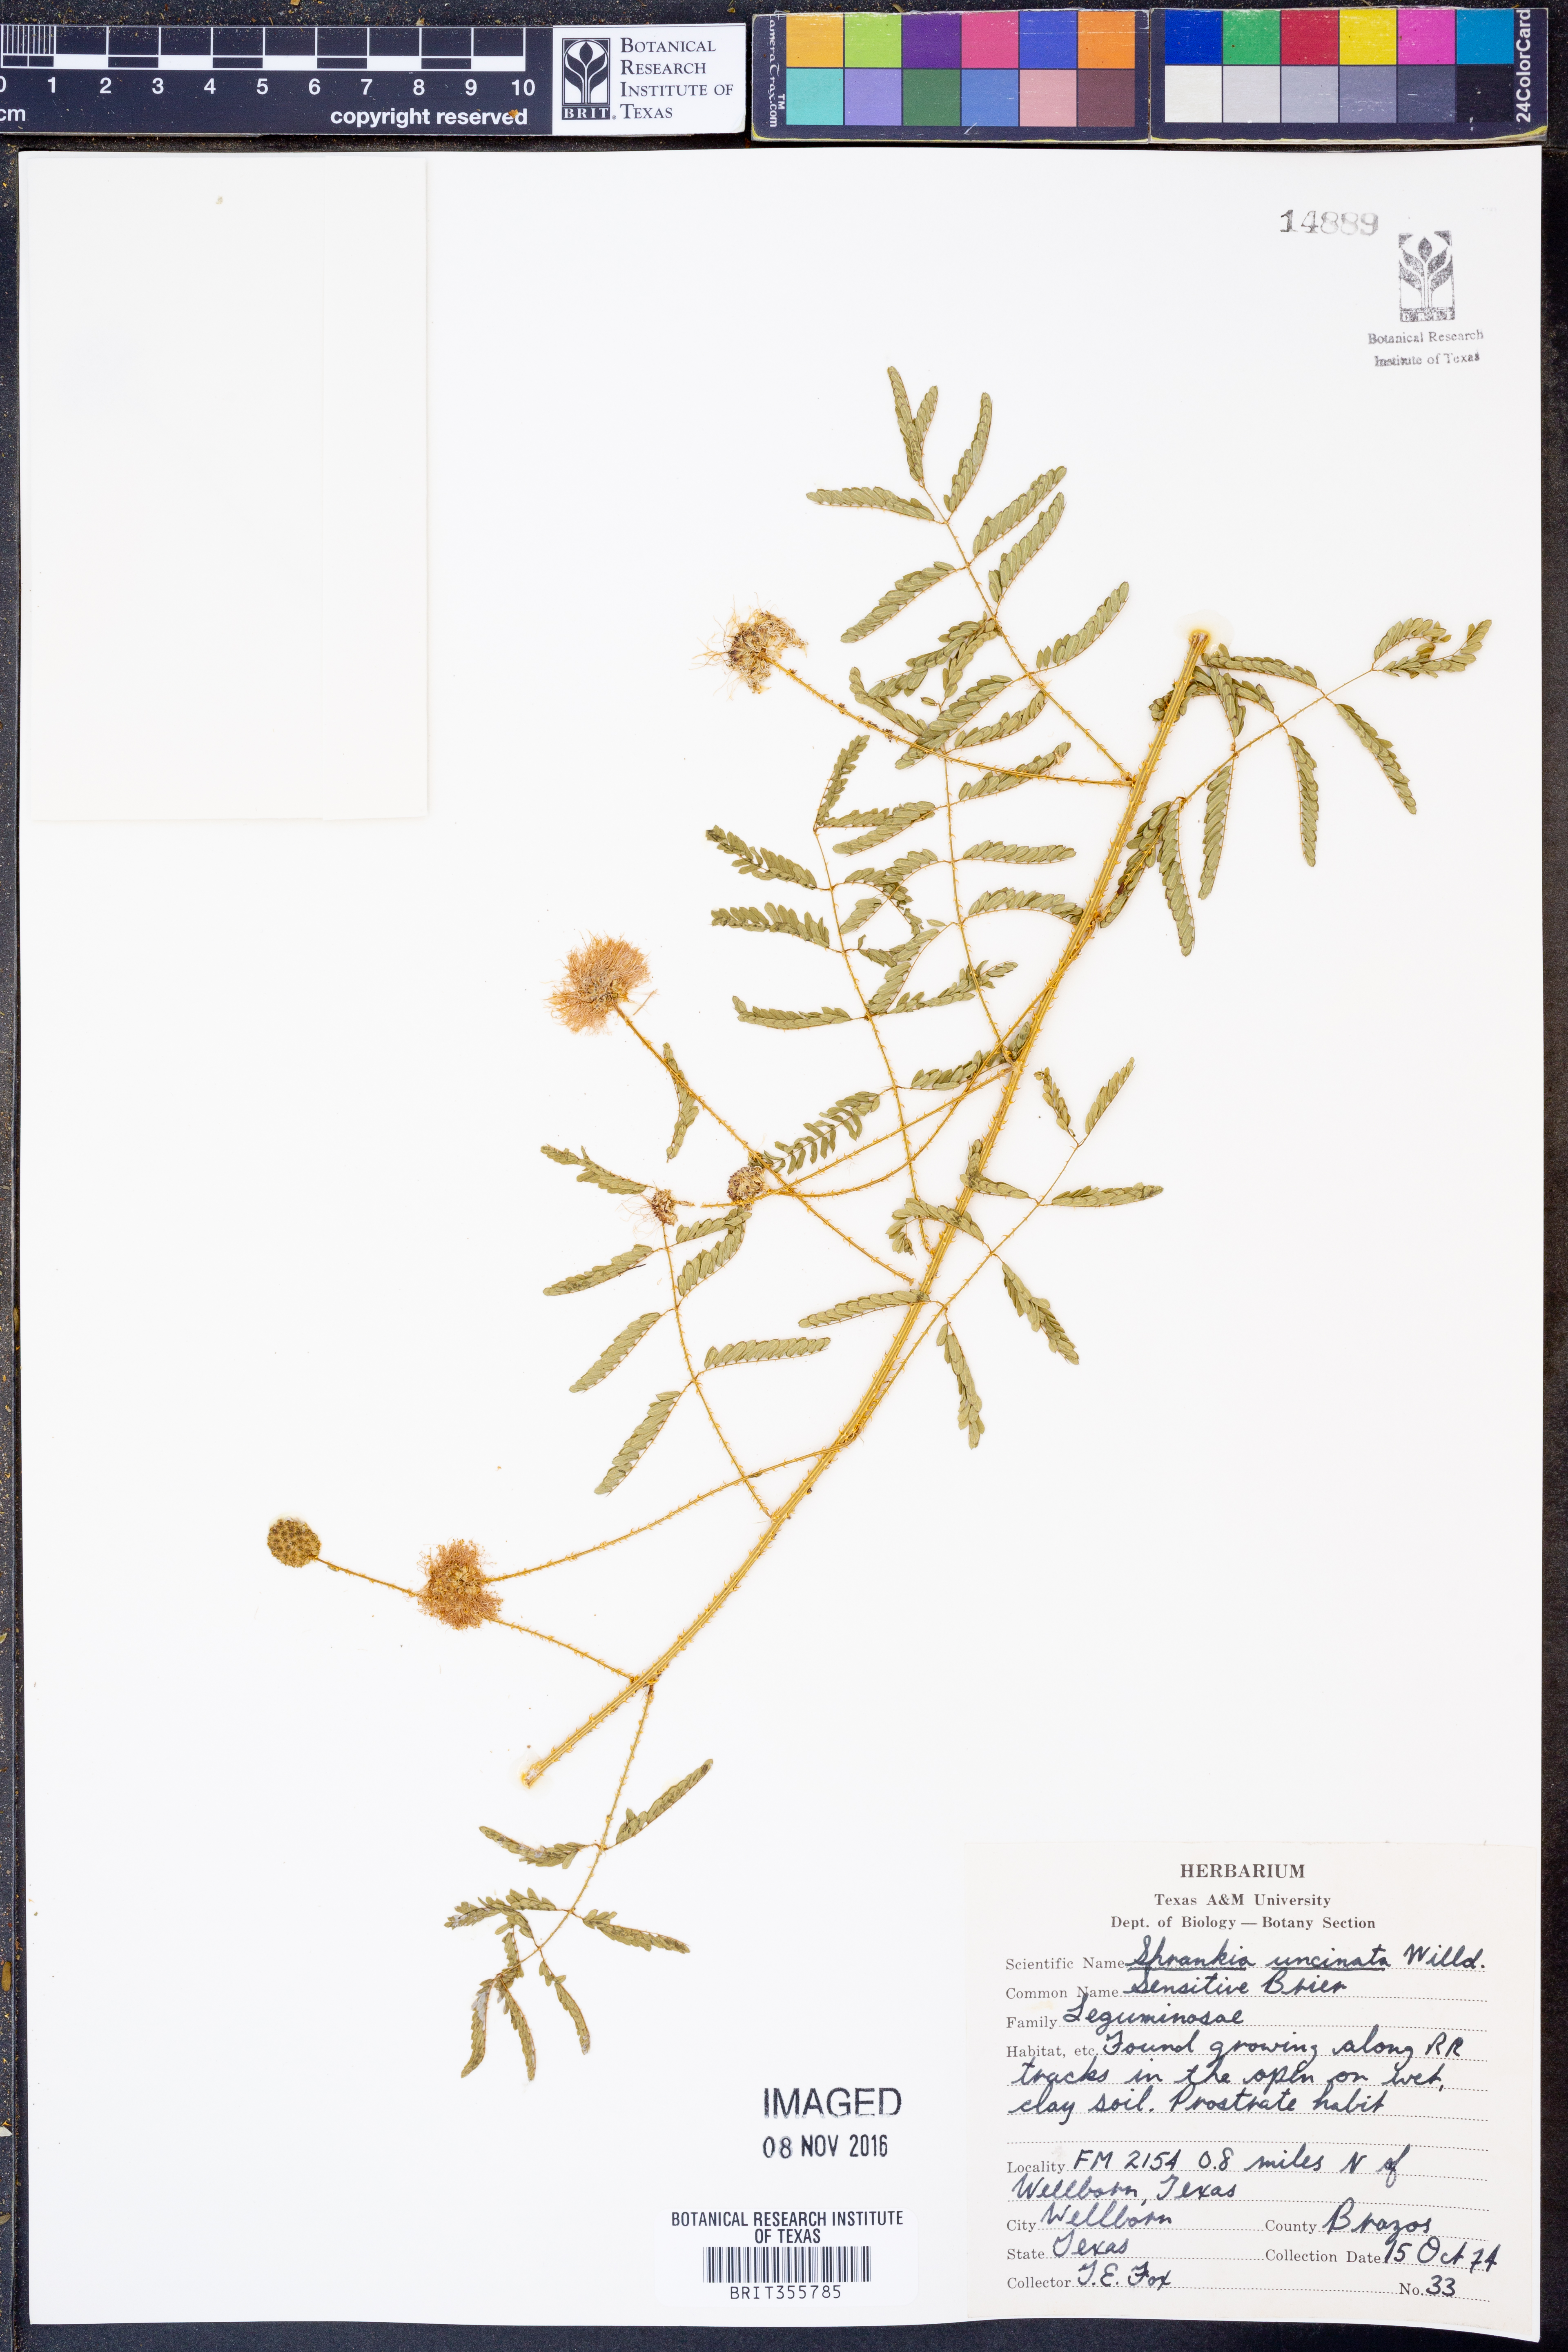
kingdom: Plantae
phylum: Tracheophyta
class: Magnoliopsida
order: Fabales
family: Fabaceae
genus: Mimosa
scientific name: Mimosa quadrivalvis
